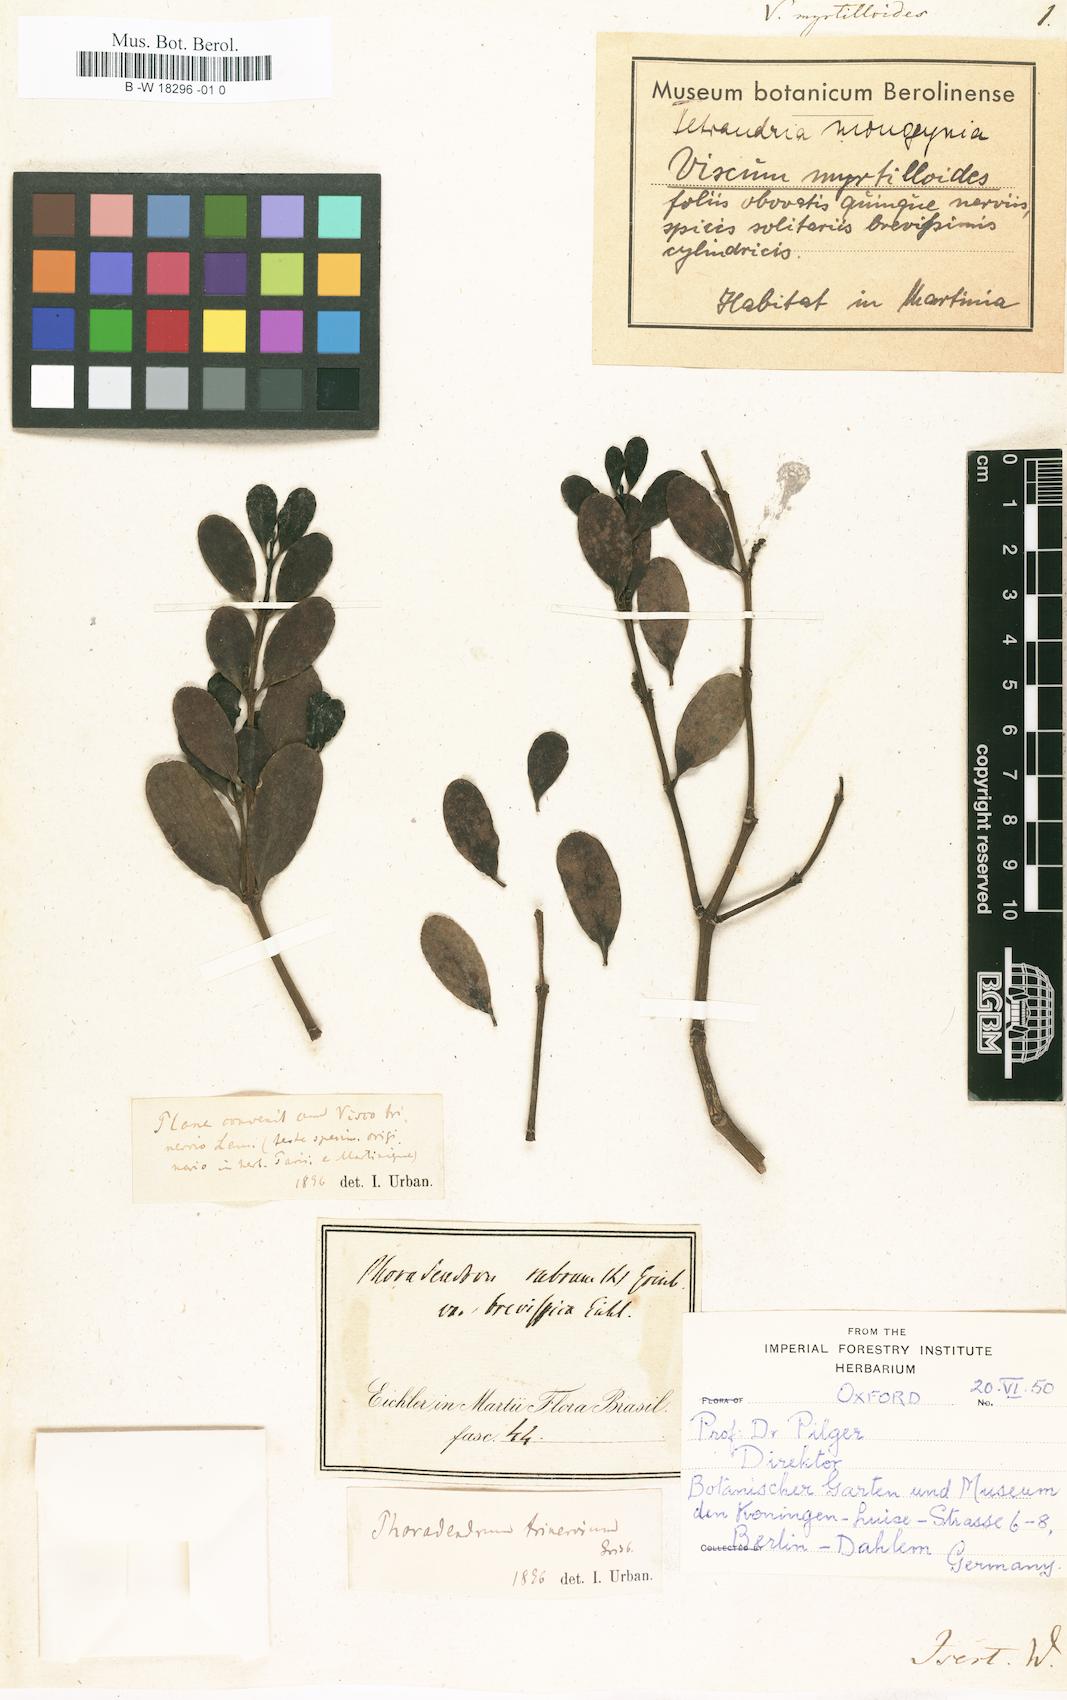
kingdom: Plantae
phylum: Tracheophyta
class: Magnoliopsida
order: Santalales
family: Viscaceae
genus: Phoradendron
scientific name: Phoradendron trinervium
